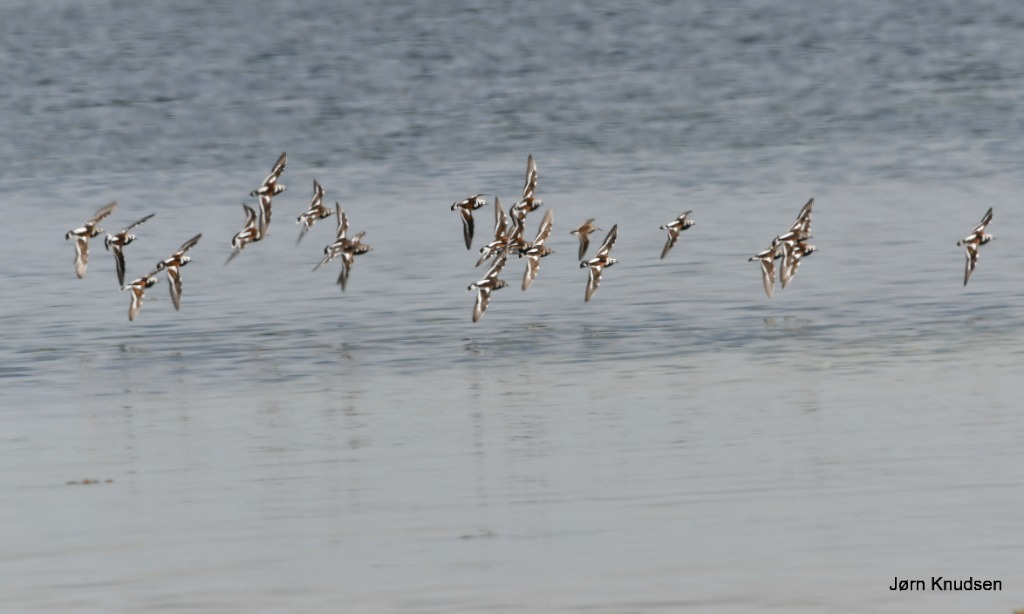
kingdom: Animalia
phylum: Chordata
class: Aves
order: Charadriiformes
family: Scolopacidae
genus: Arenaria
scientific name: Arenaria interpres
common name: Stenvender
